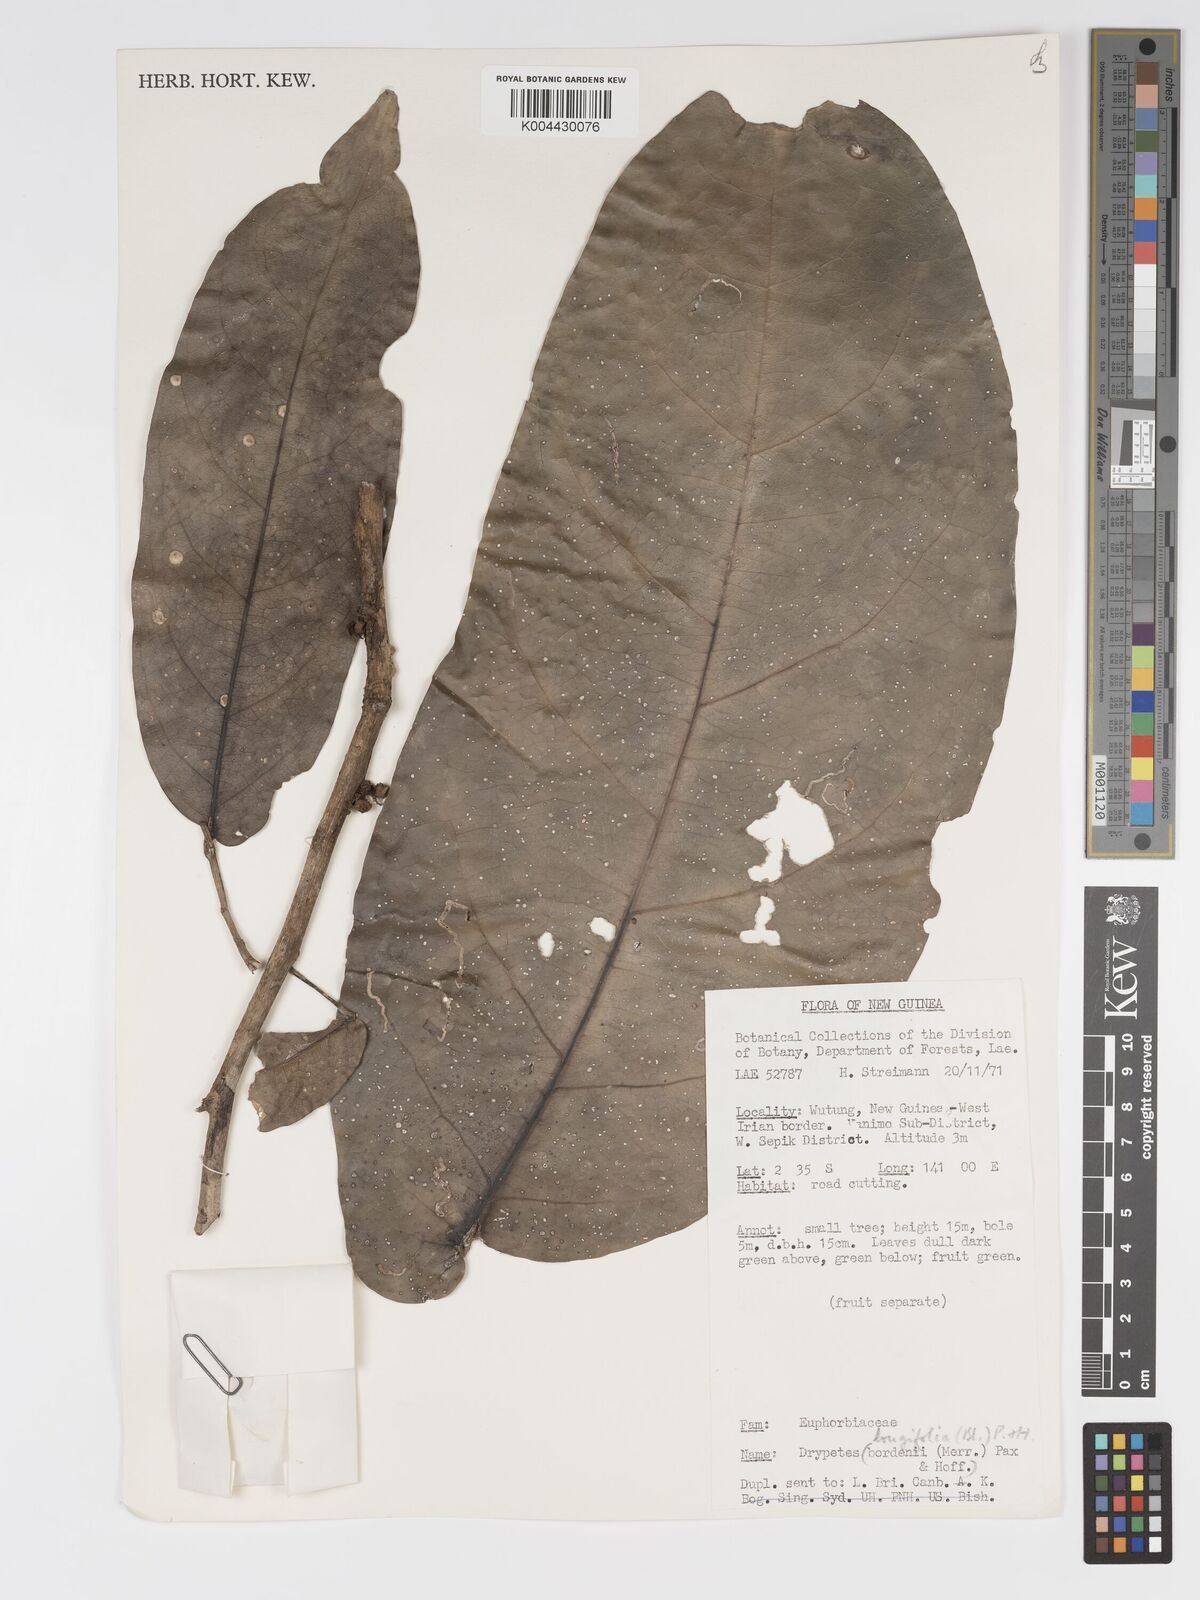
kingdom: Plantae
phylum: Tracheophyta
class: Magnoliopsida
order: Malpighiales
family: Putranjivaceae
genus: Drypetes
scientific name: Drypetes longifolia
